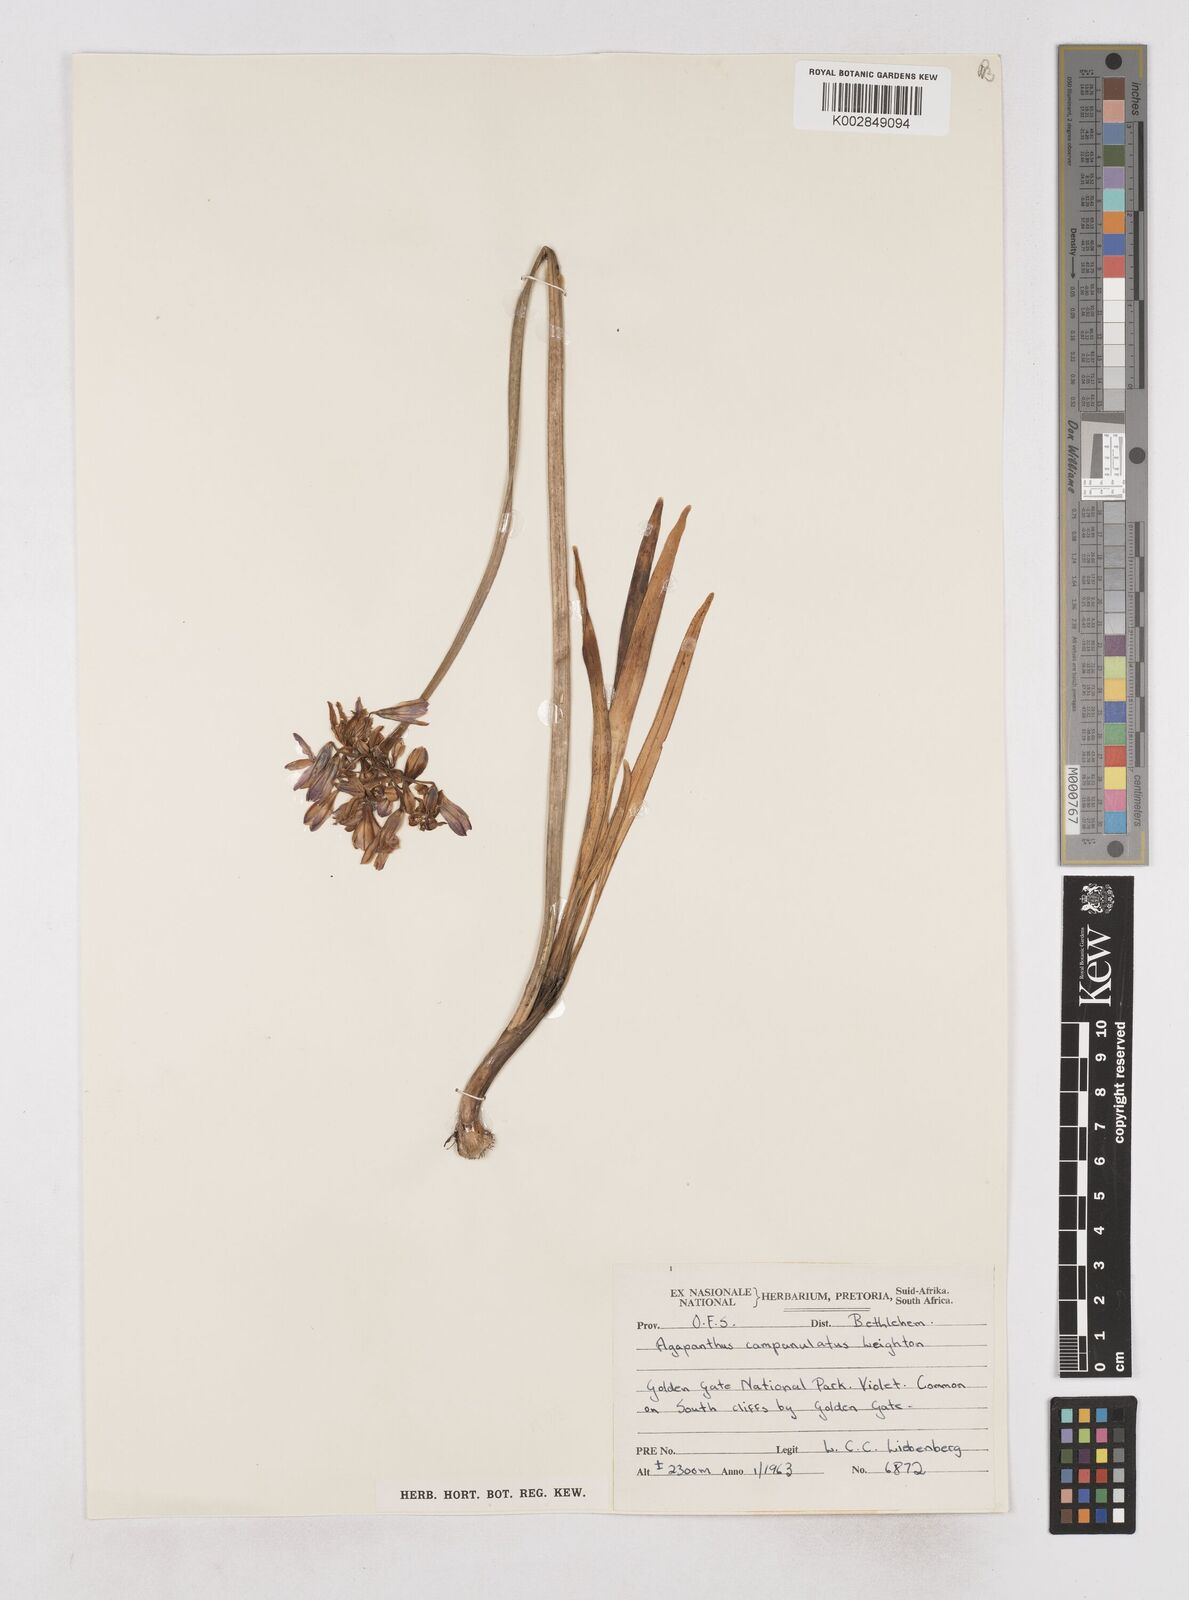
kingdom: Plantae
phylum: Tracheophyta
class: Liliopsida
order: Asparagales
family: Amaryllidaceae
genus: Agapanthus
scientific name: Agapanthus campanulatus
